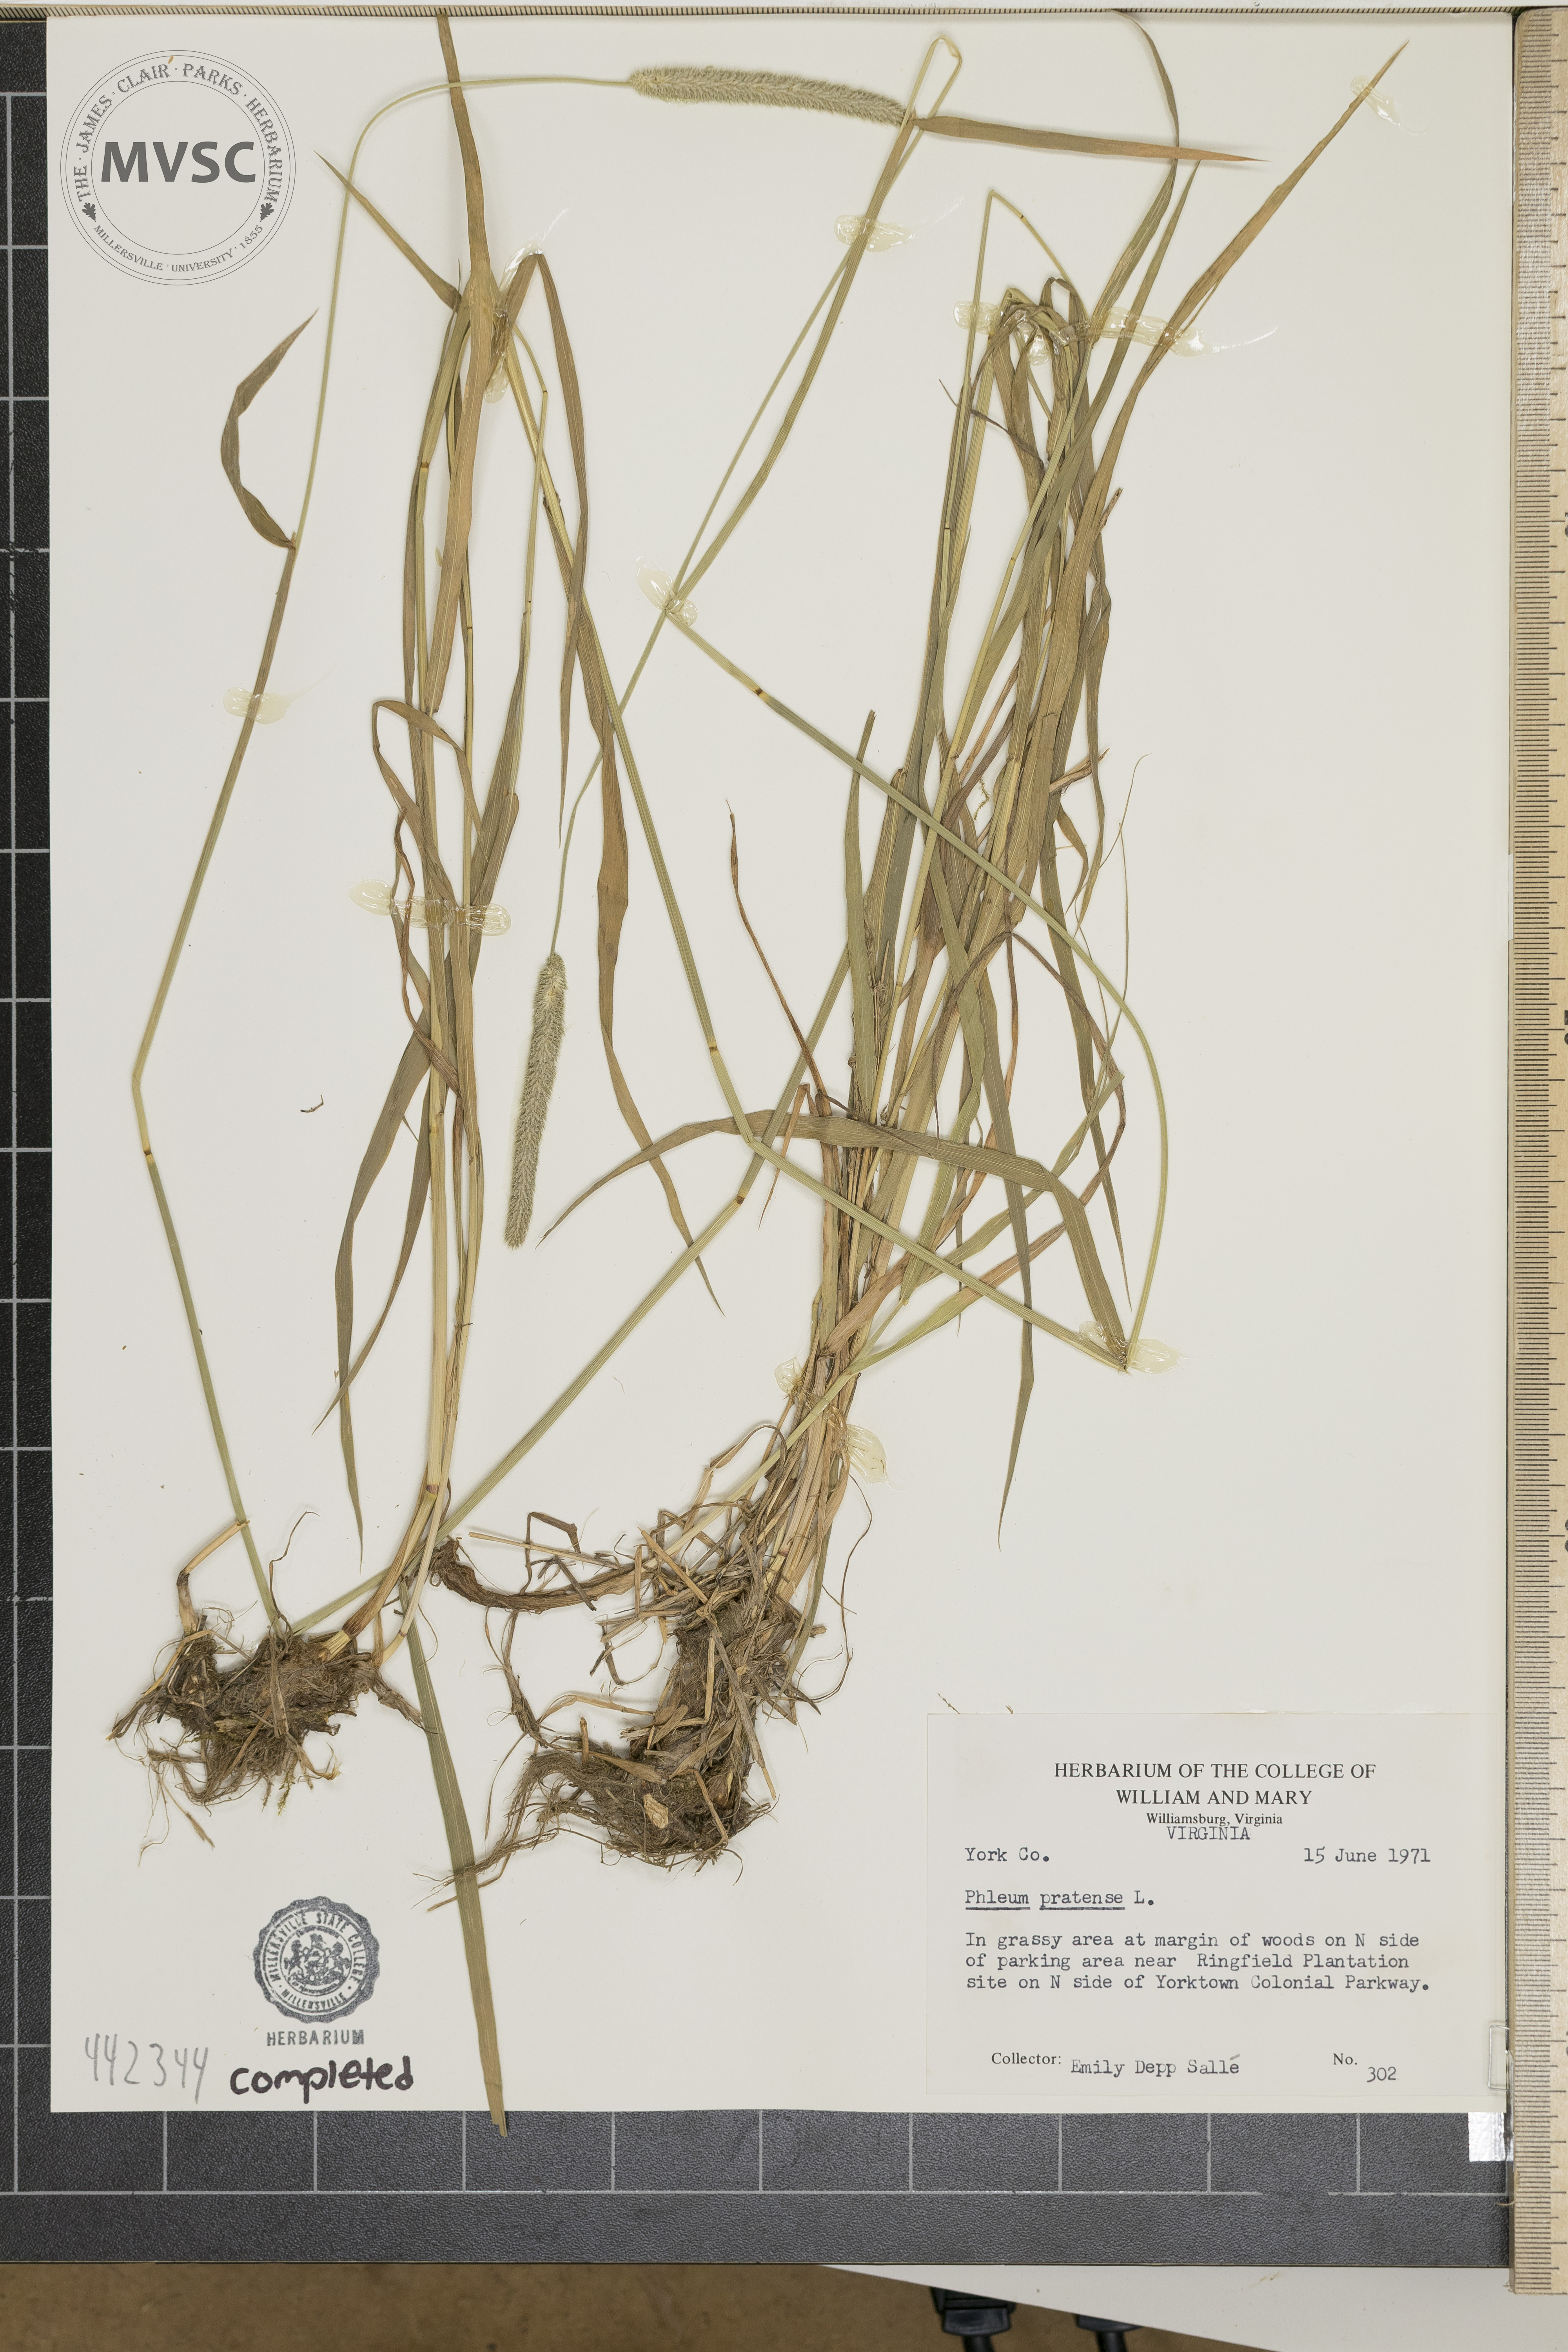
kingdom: Plantae
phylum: Tracheophyta
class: Liliopsida
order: Poales
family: Poaceae
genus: Phleum
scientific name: Phleum pratense
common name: Timothy grass
